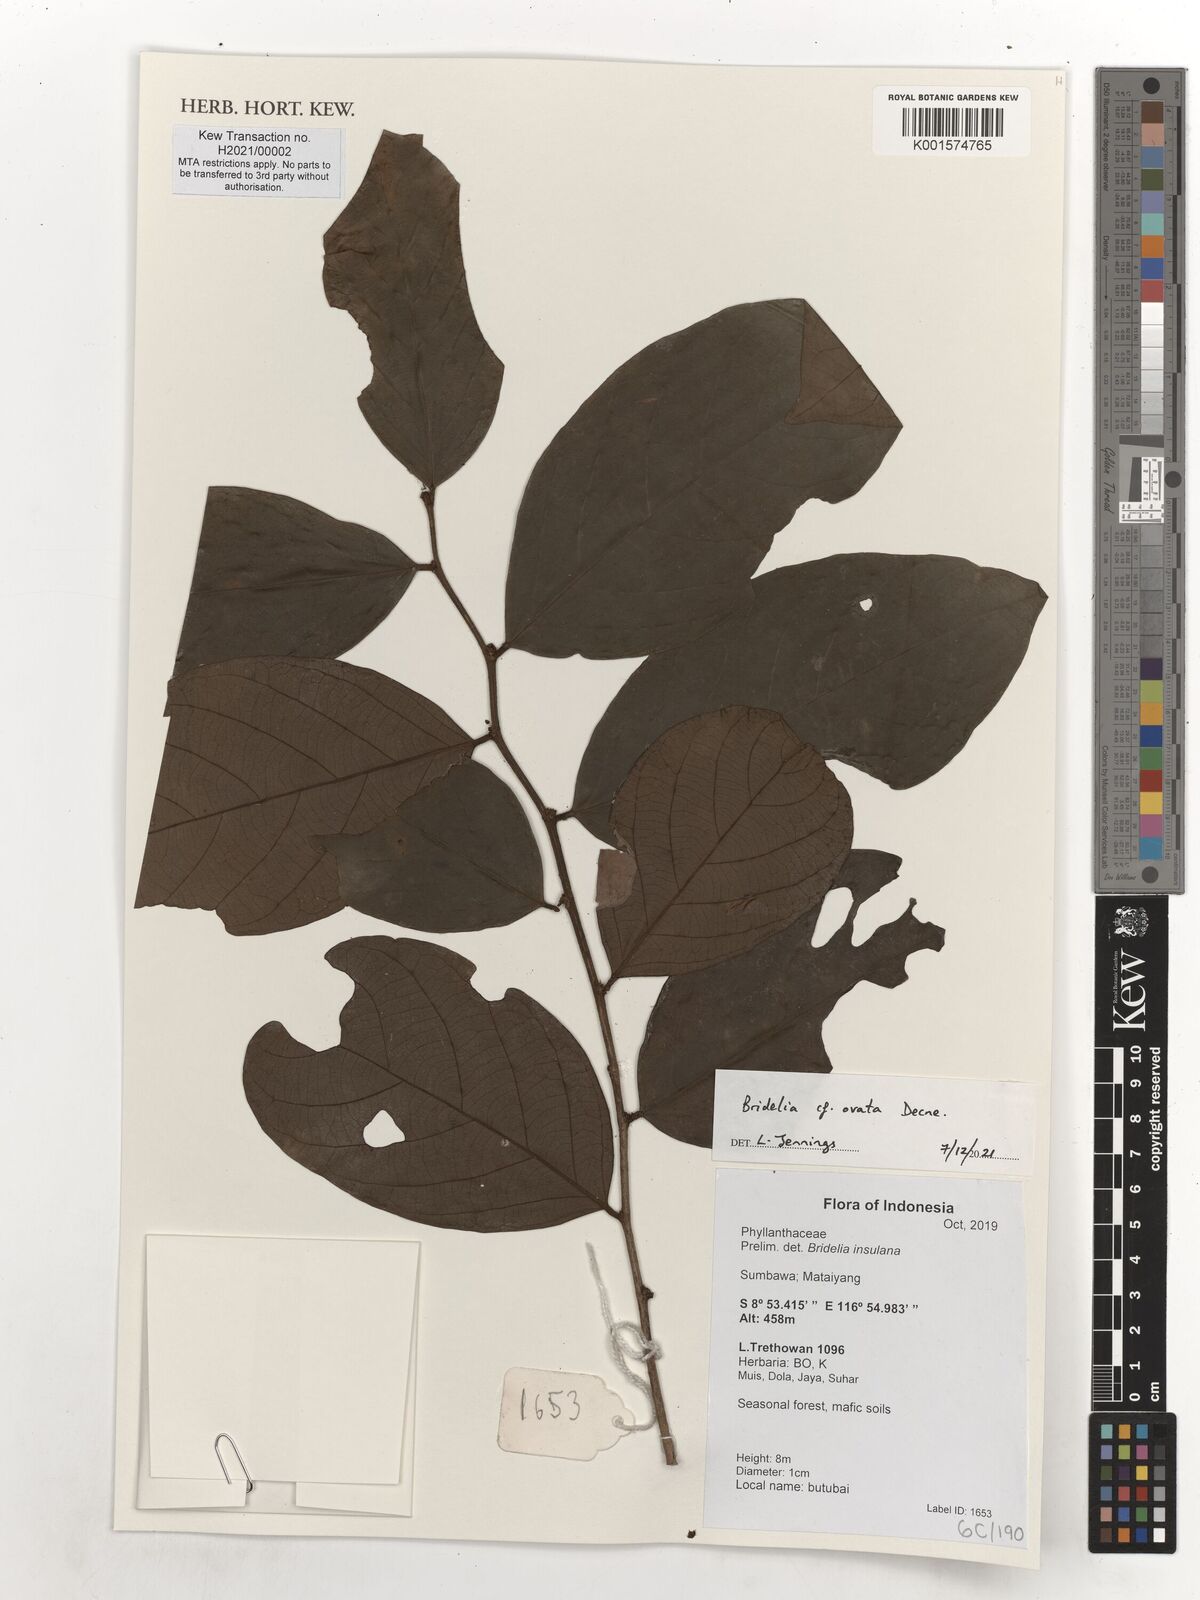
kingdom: Plantae
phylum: Tracheophyta
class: Magnoliopsida
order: Malpighiales
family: Phyllanthaceae
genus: Bridelia
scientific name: Bridelia ovata
